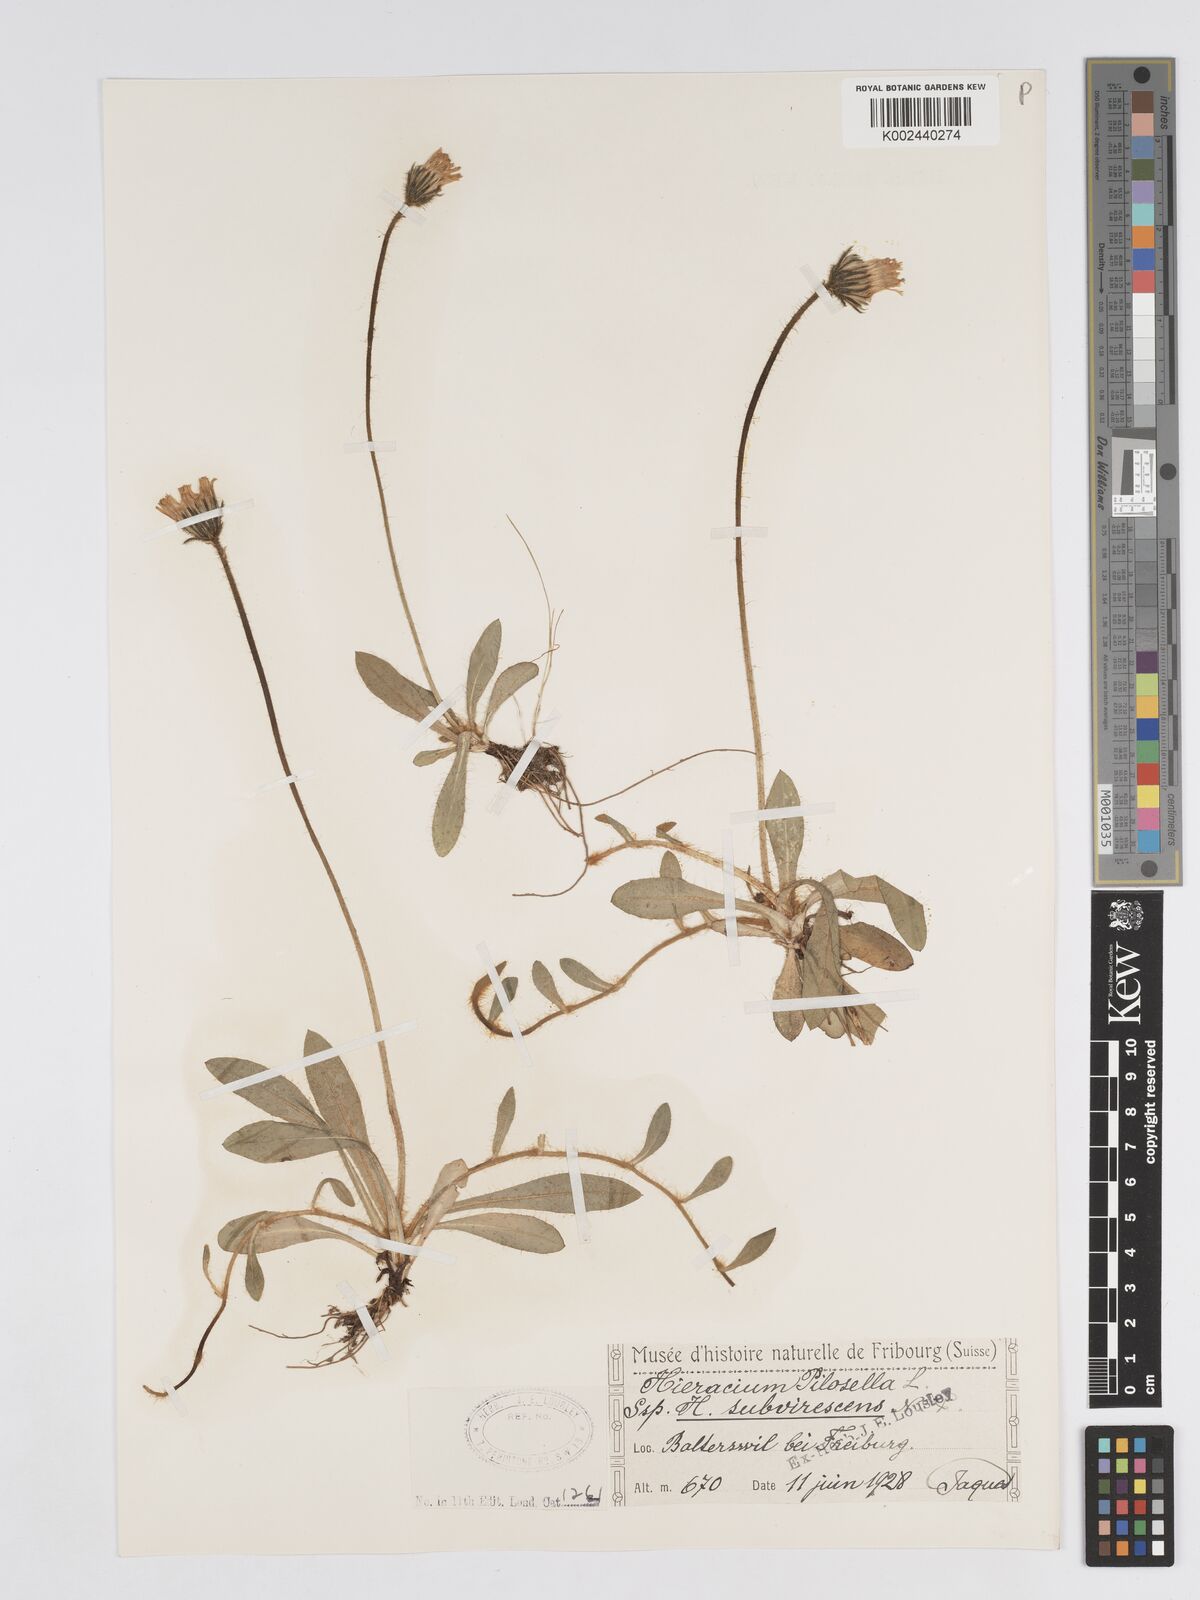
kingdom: Plantae
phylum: Tracheophyta
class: Magnoliopsida
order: Asterales
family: Asteraceae
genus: Hieracium
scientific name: Hieracium
